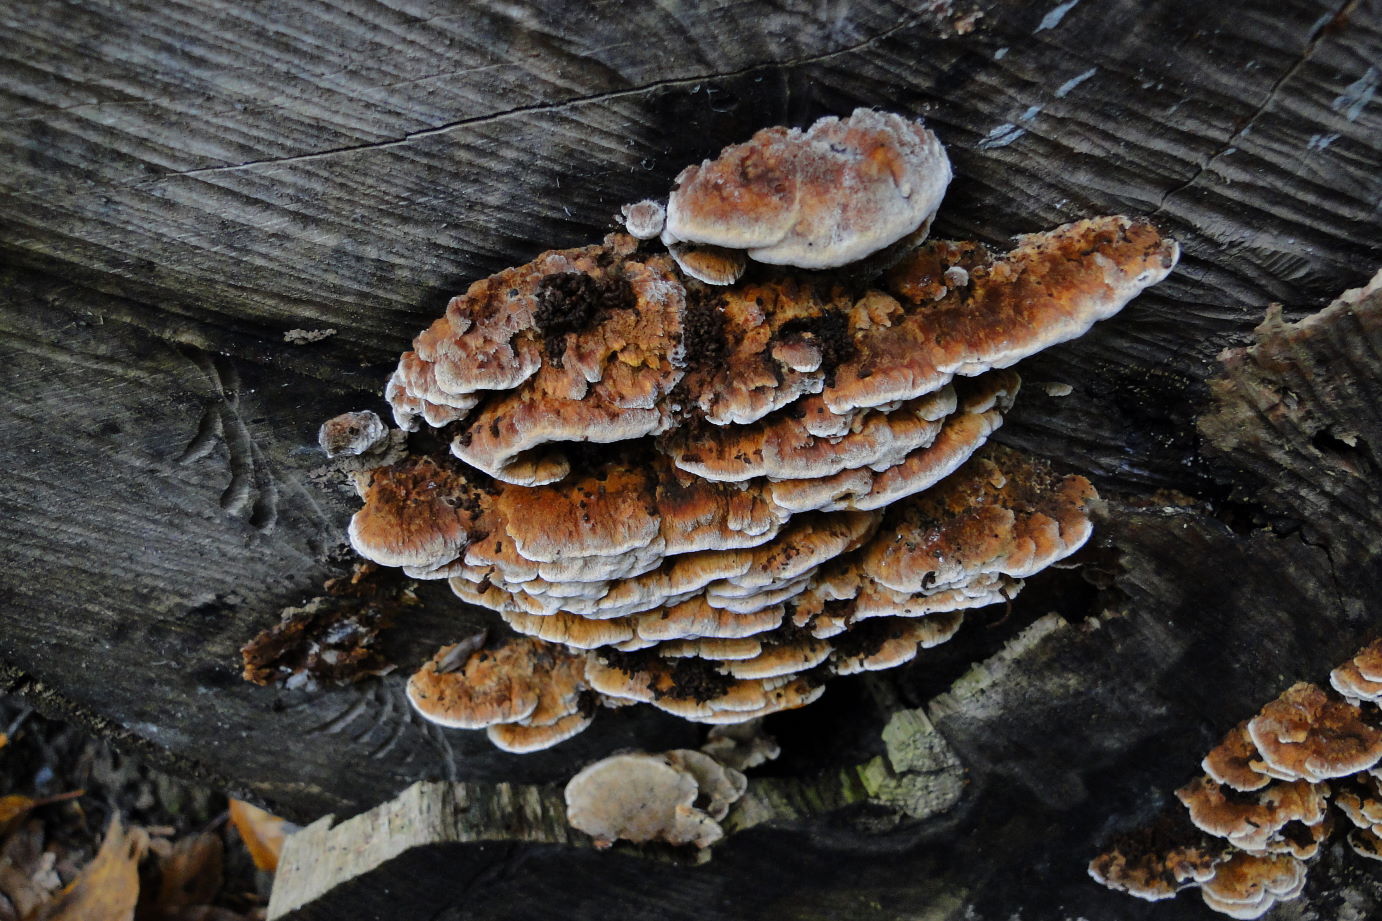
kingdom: Fungi
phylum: Basidiomycota
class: Agaricomycetes
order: Hymenochaetales
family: Hymenochaetaceae
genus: Mensularia
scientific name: Mensularia nodulosa
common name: bøge-spejlporesvamp
